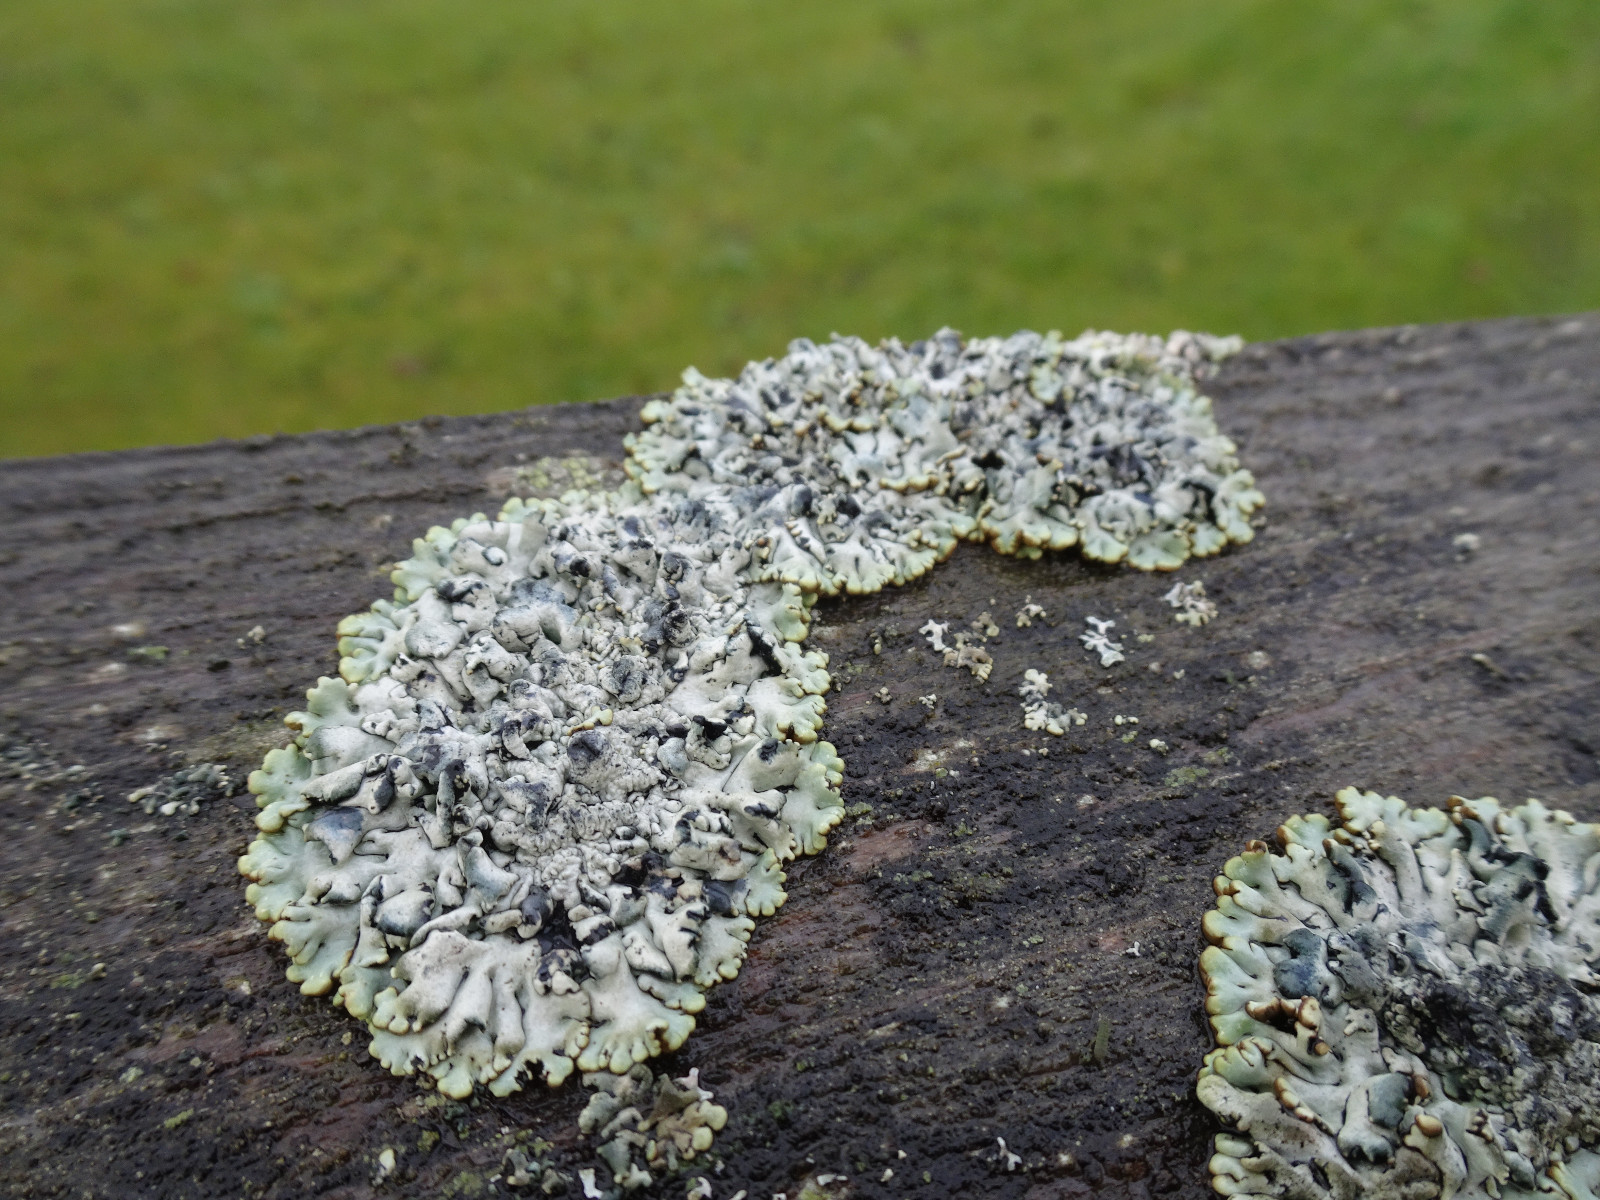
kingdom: Fungi
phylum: Ascomycota
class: Lecanoromycetes
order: Lecanorales
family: Parmeliaceae
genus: Hypogymnia
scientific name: Hypogymnia physodes
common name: almindelig kvistlav
